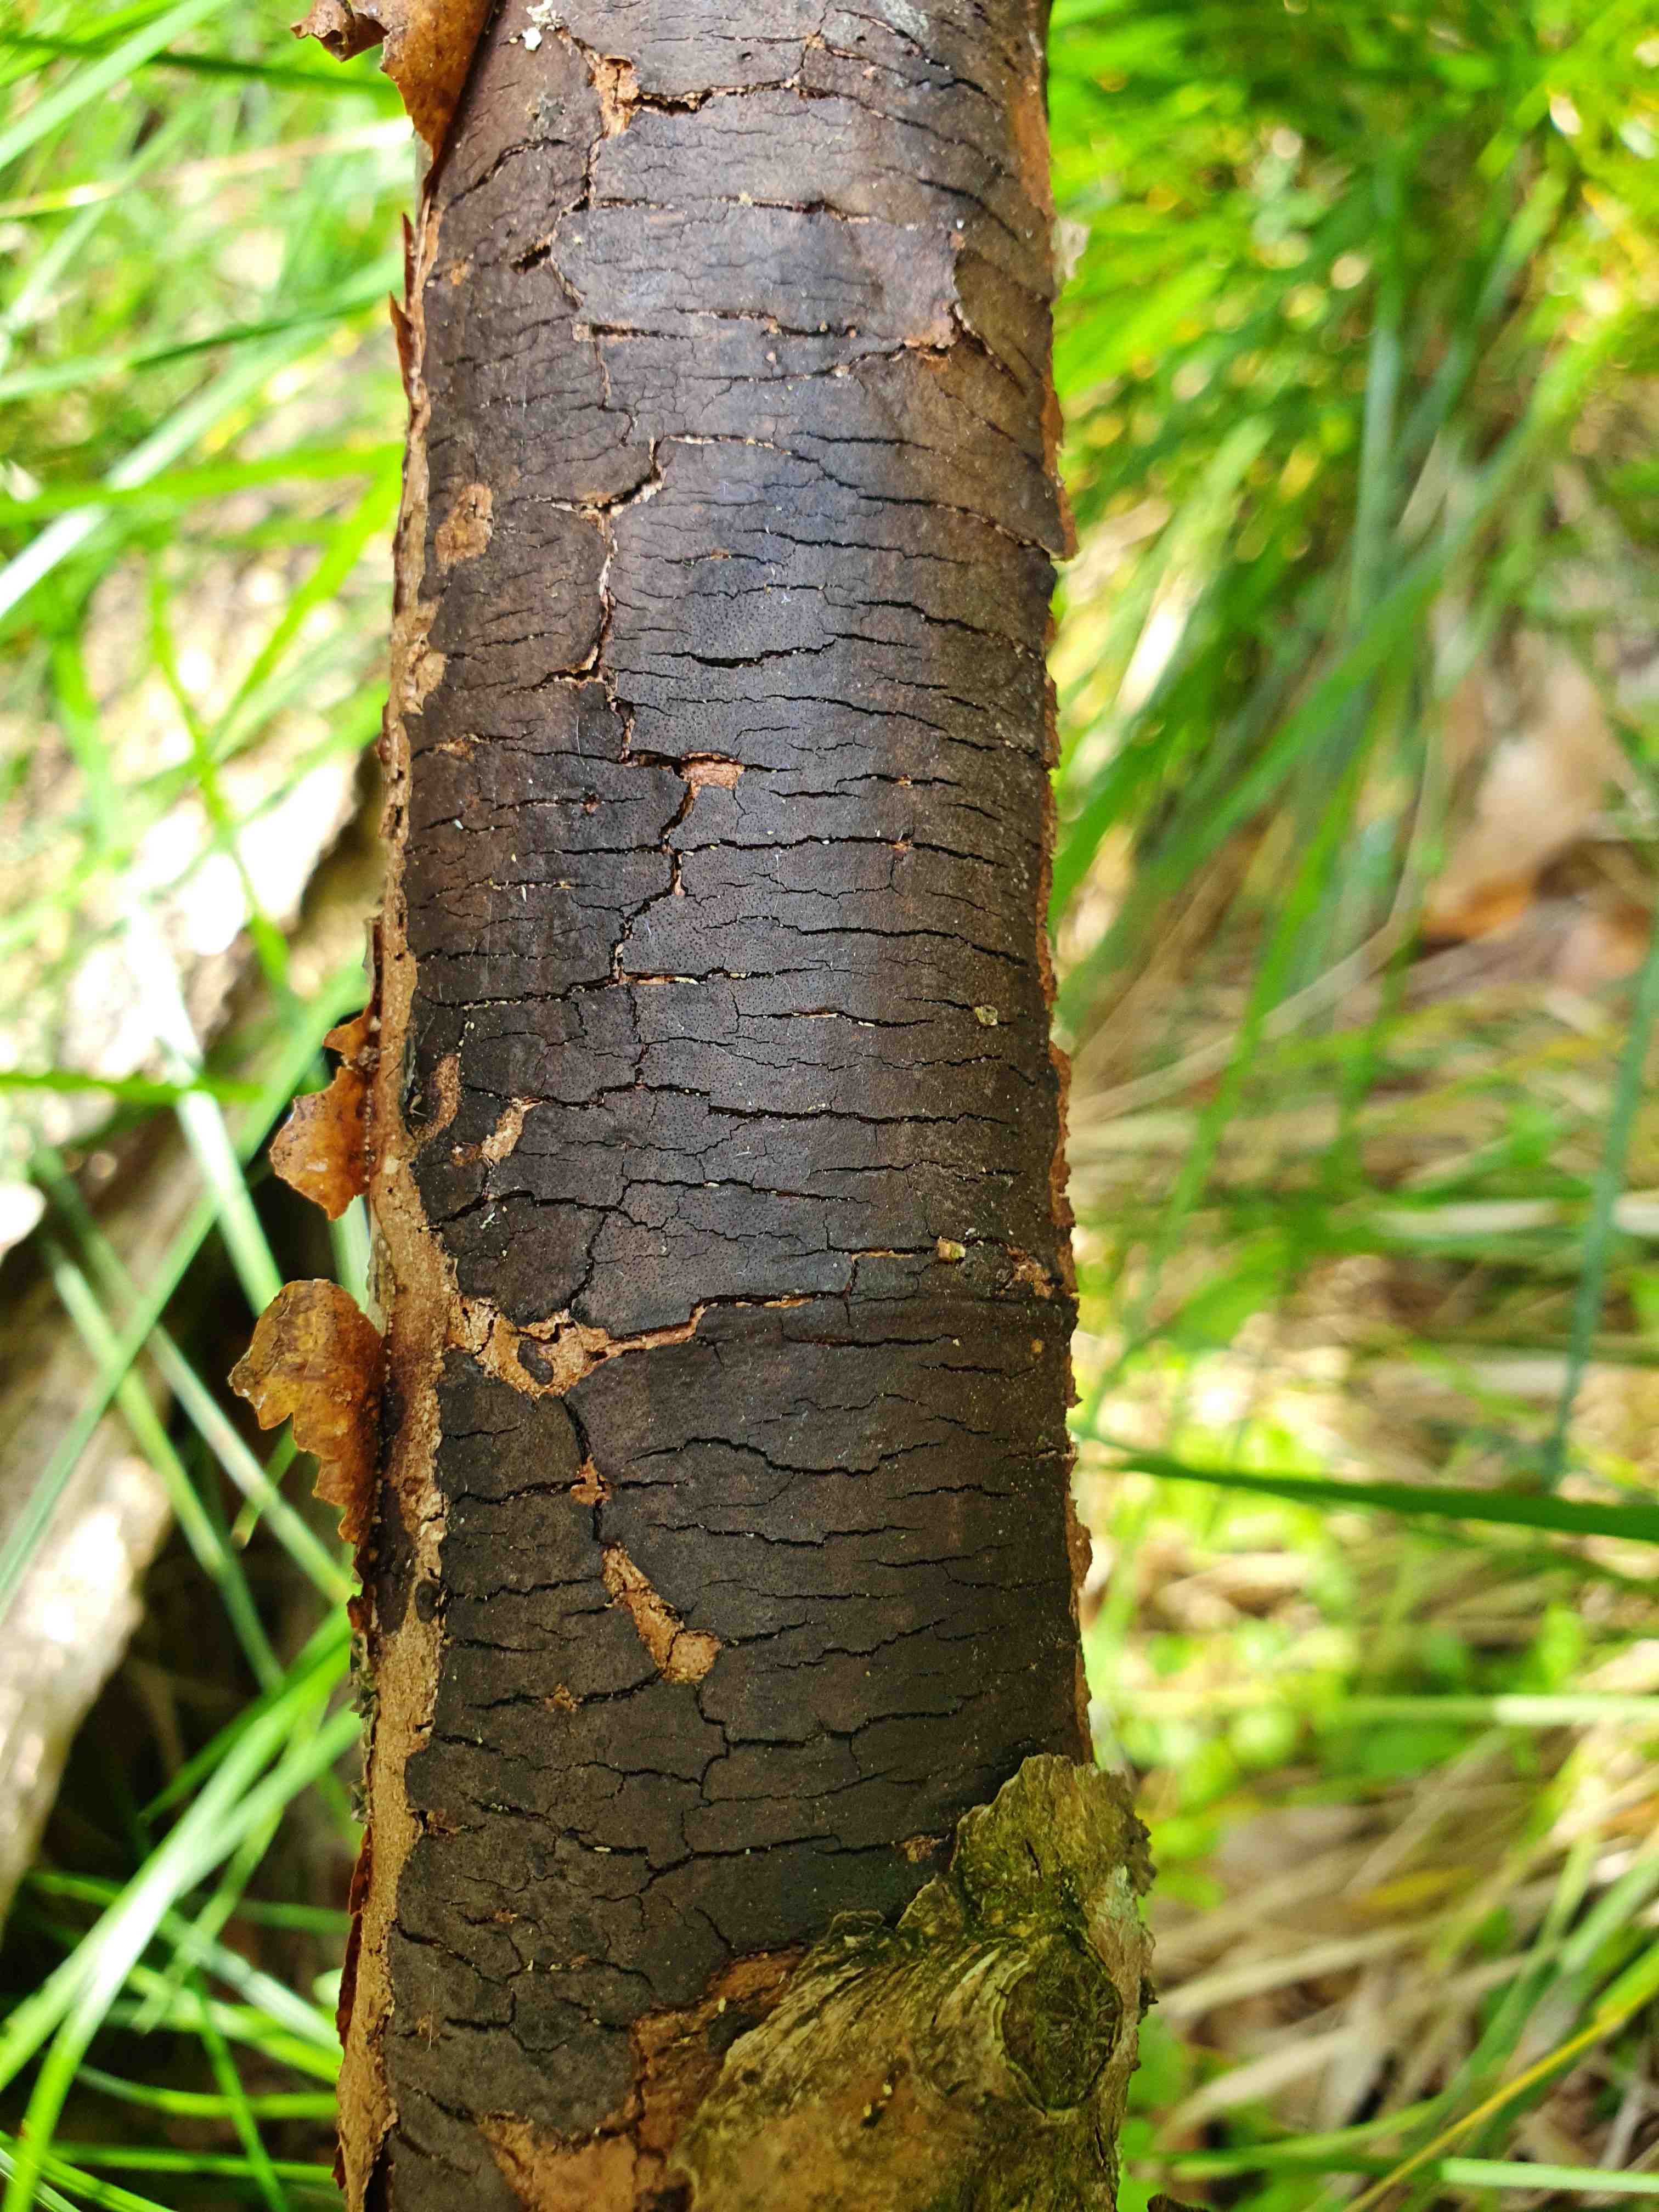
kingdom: Fungi
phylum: Ascomycota
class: Sordariomycetes
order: Xylariales
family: Diatrypaceae
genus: Diatrype
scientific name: Diatrype decorticata
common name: barksprænger-kulskorpe
